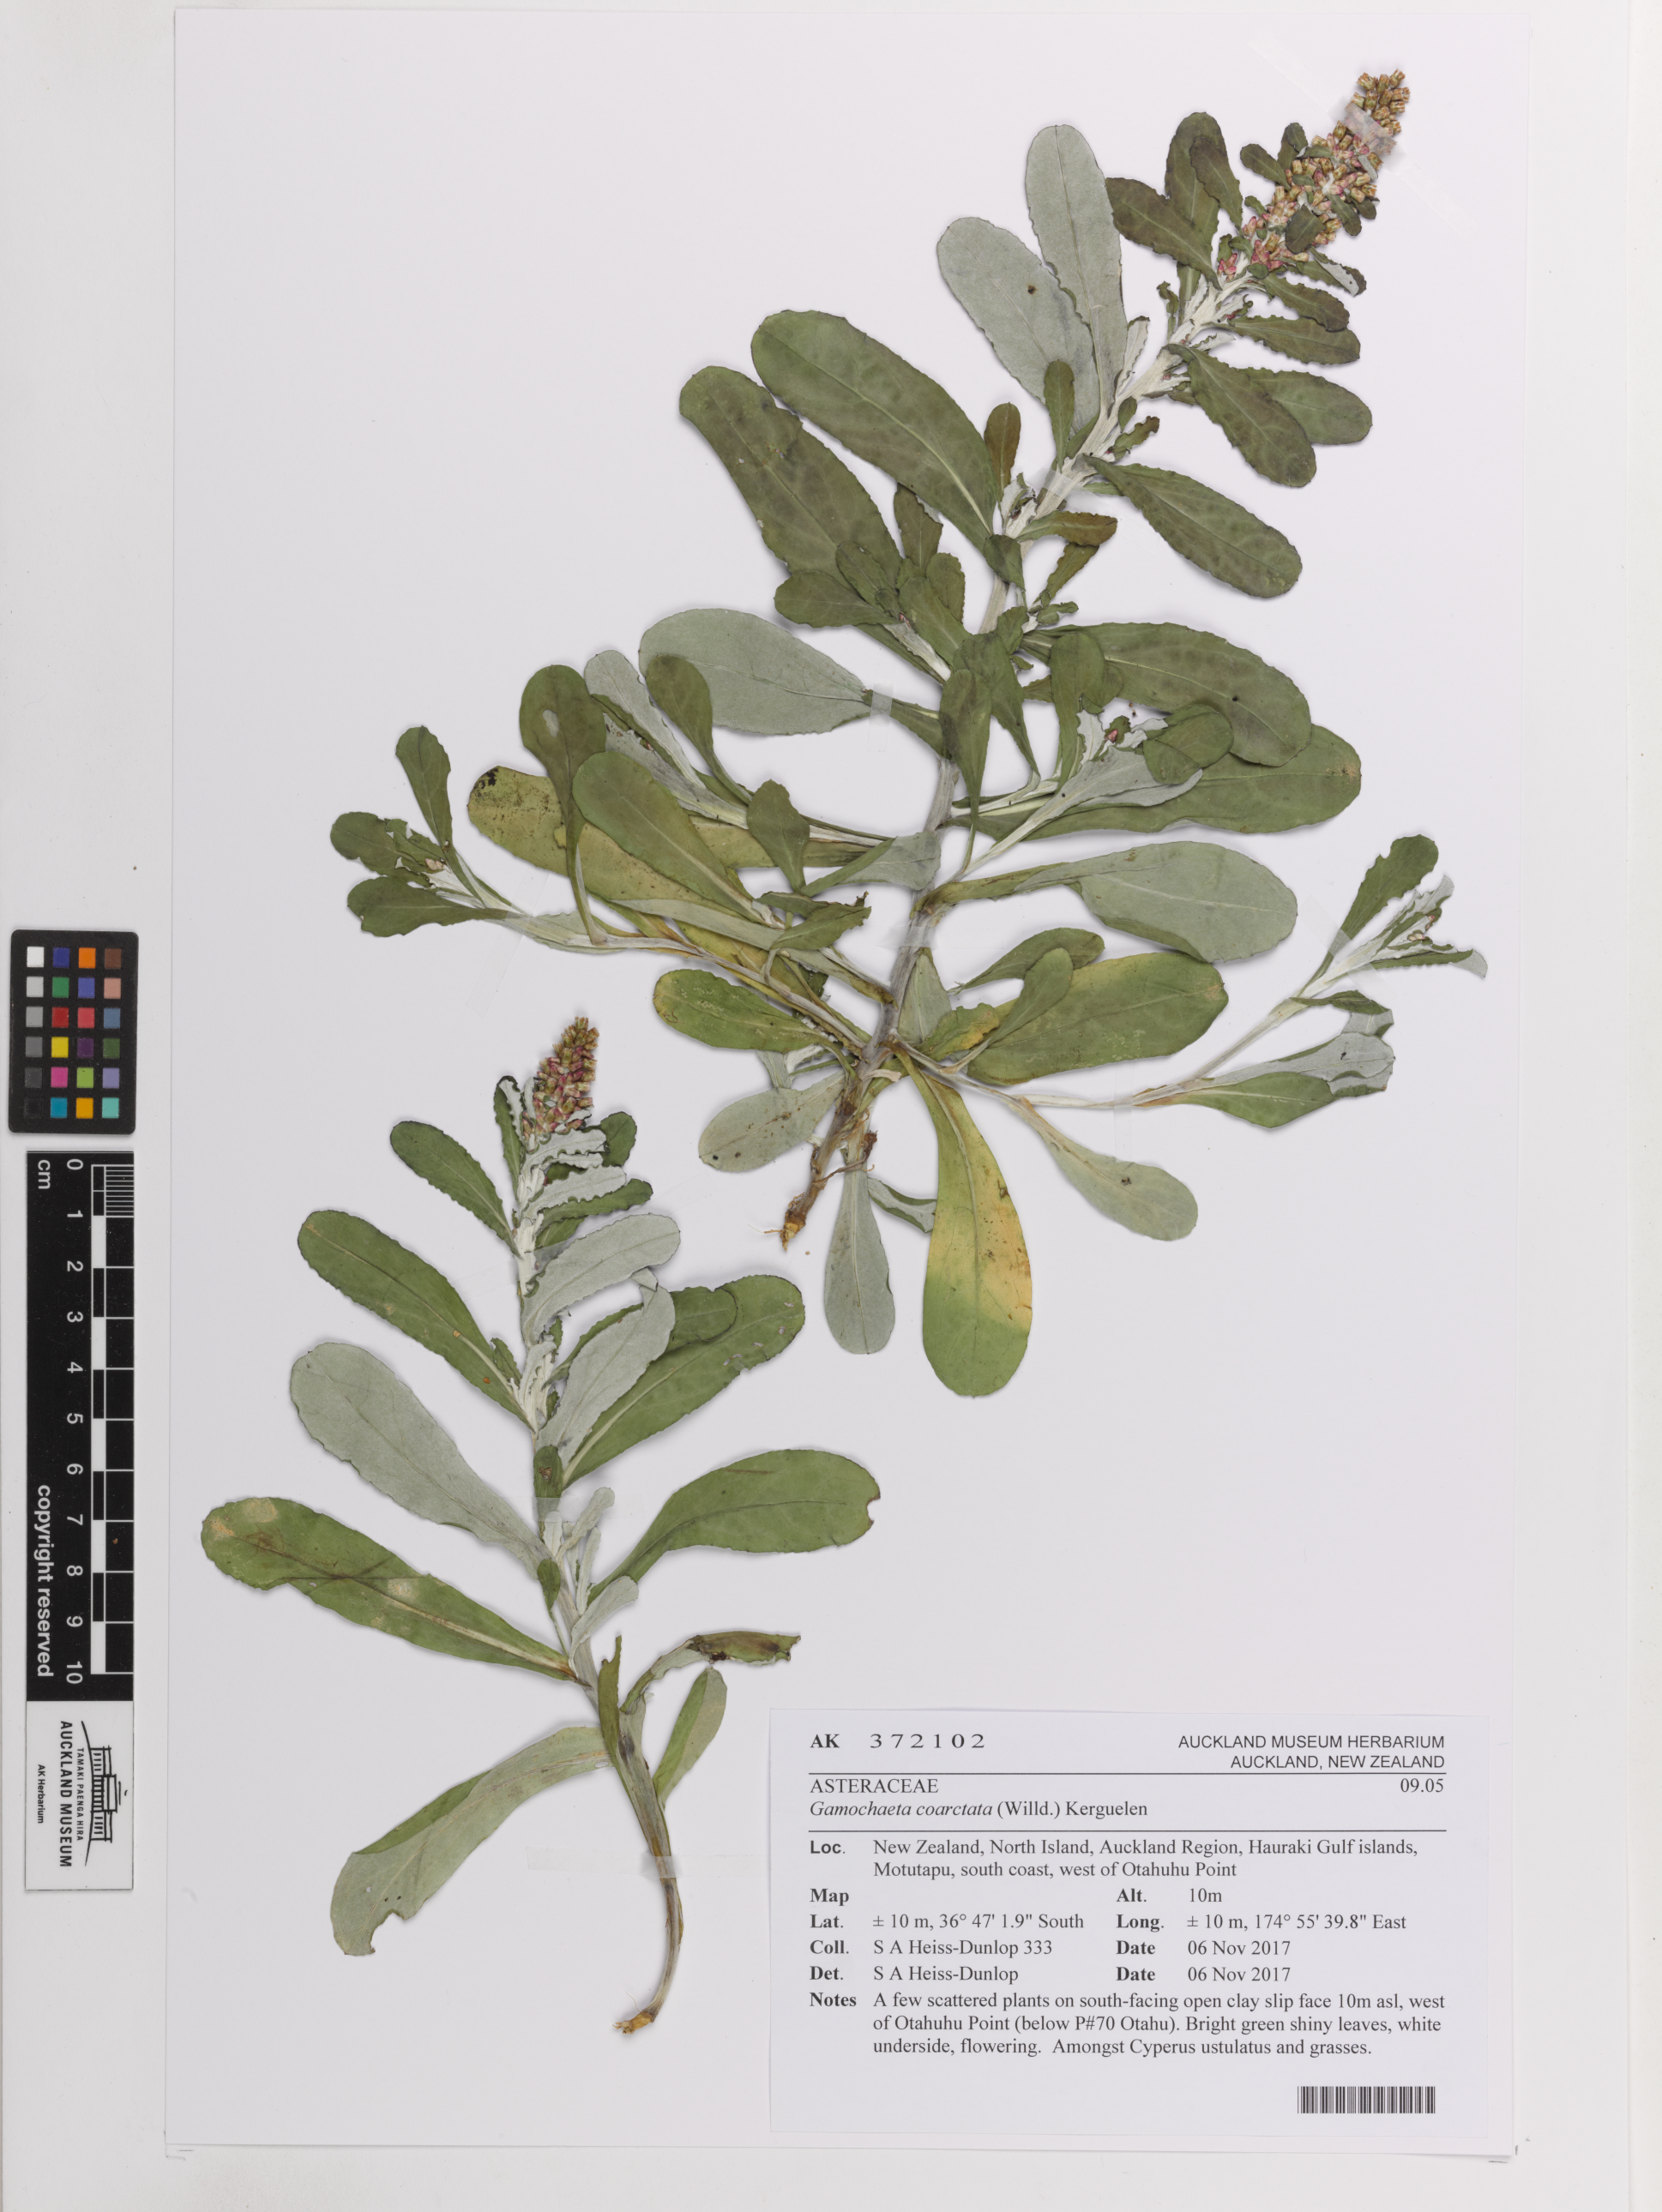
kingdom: Plantae
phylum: Tracheophyta
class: Magnoliopsida
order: Asterales
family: Asteraceae
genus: Gamochaeta
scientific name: Gamochaeta americana
